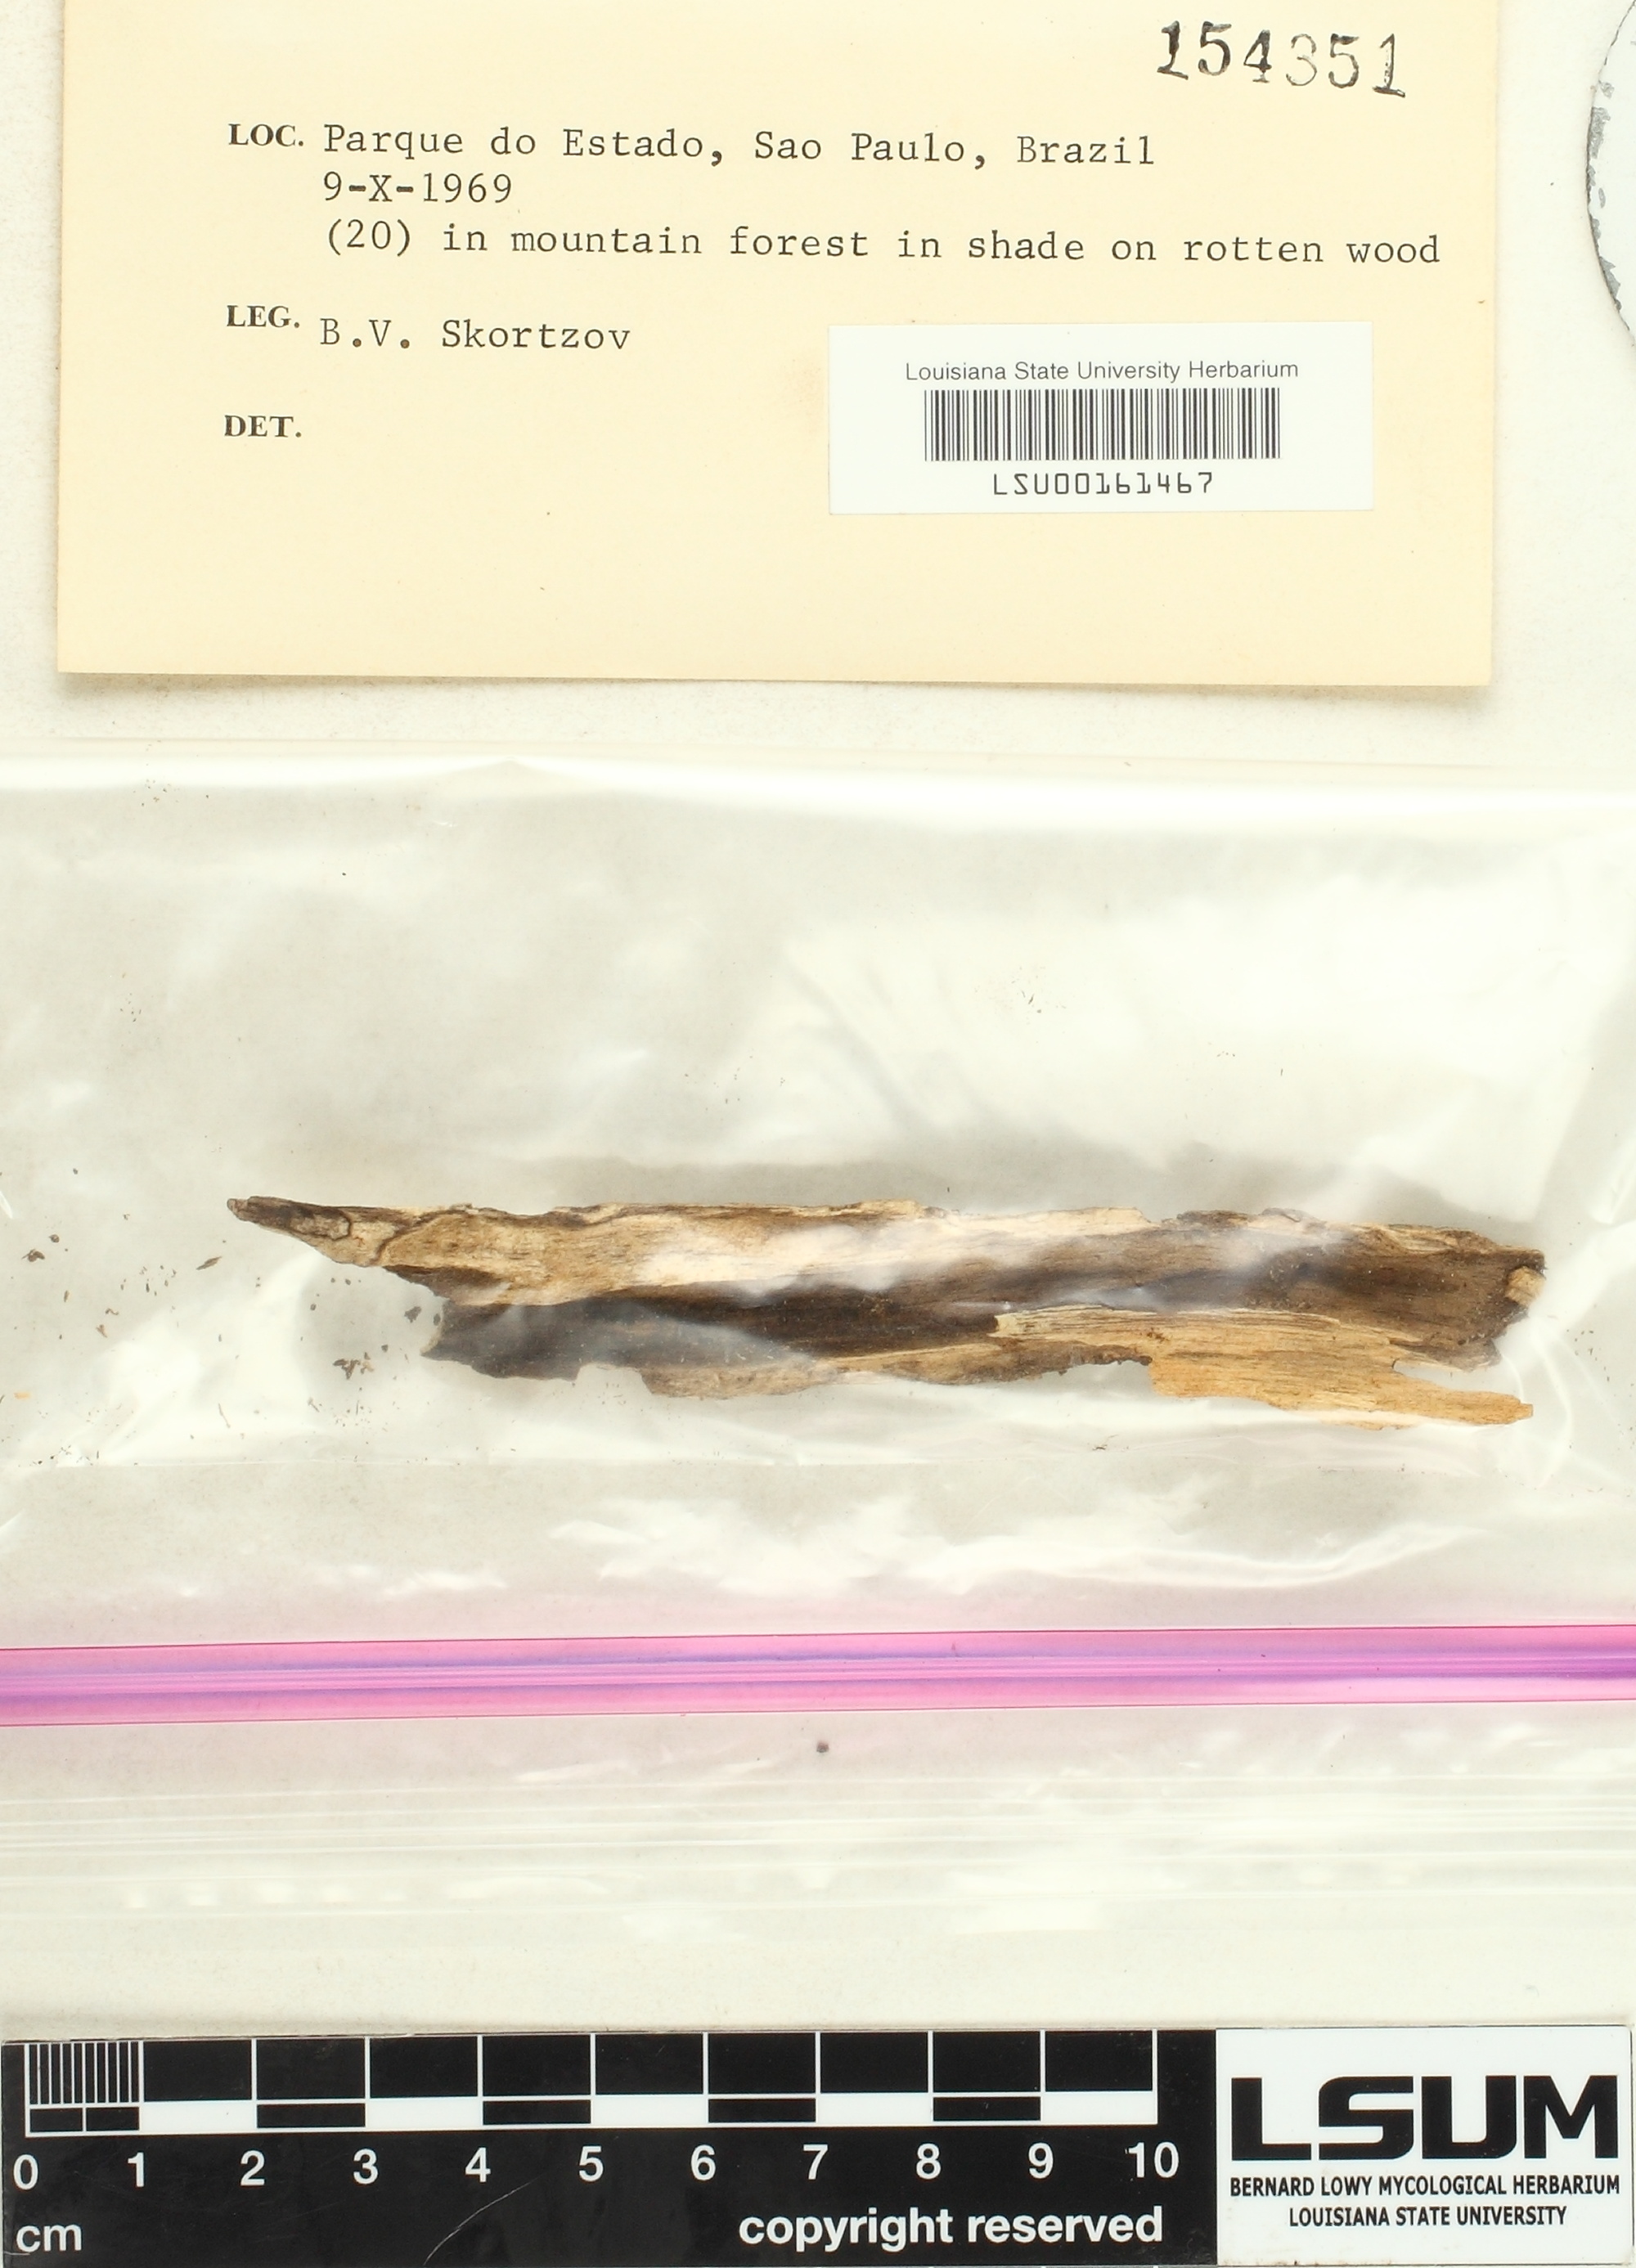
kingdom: Fungi
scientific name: Fungi
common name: Fungi
